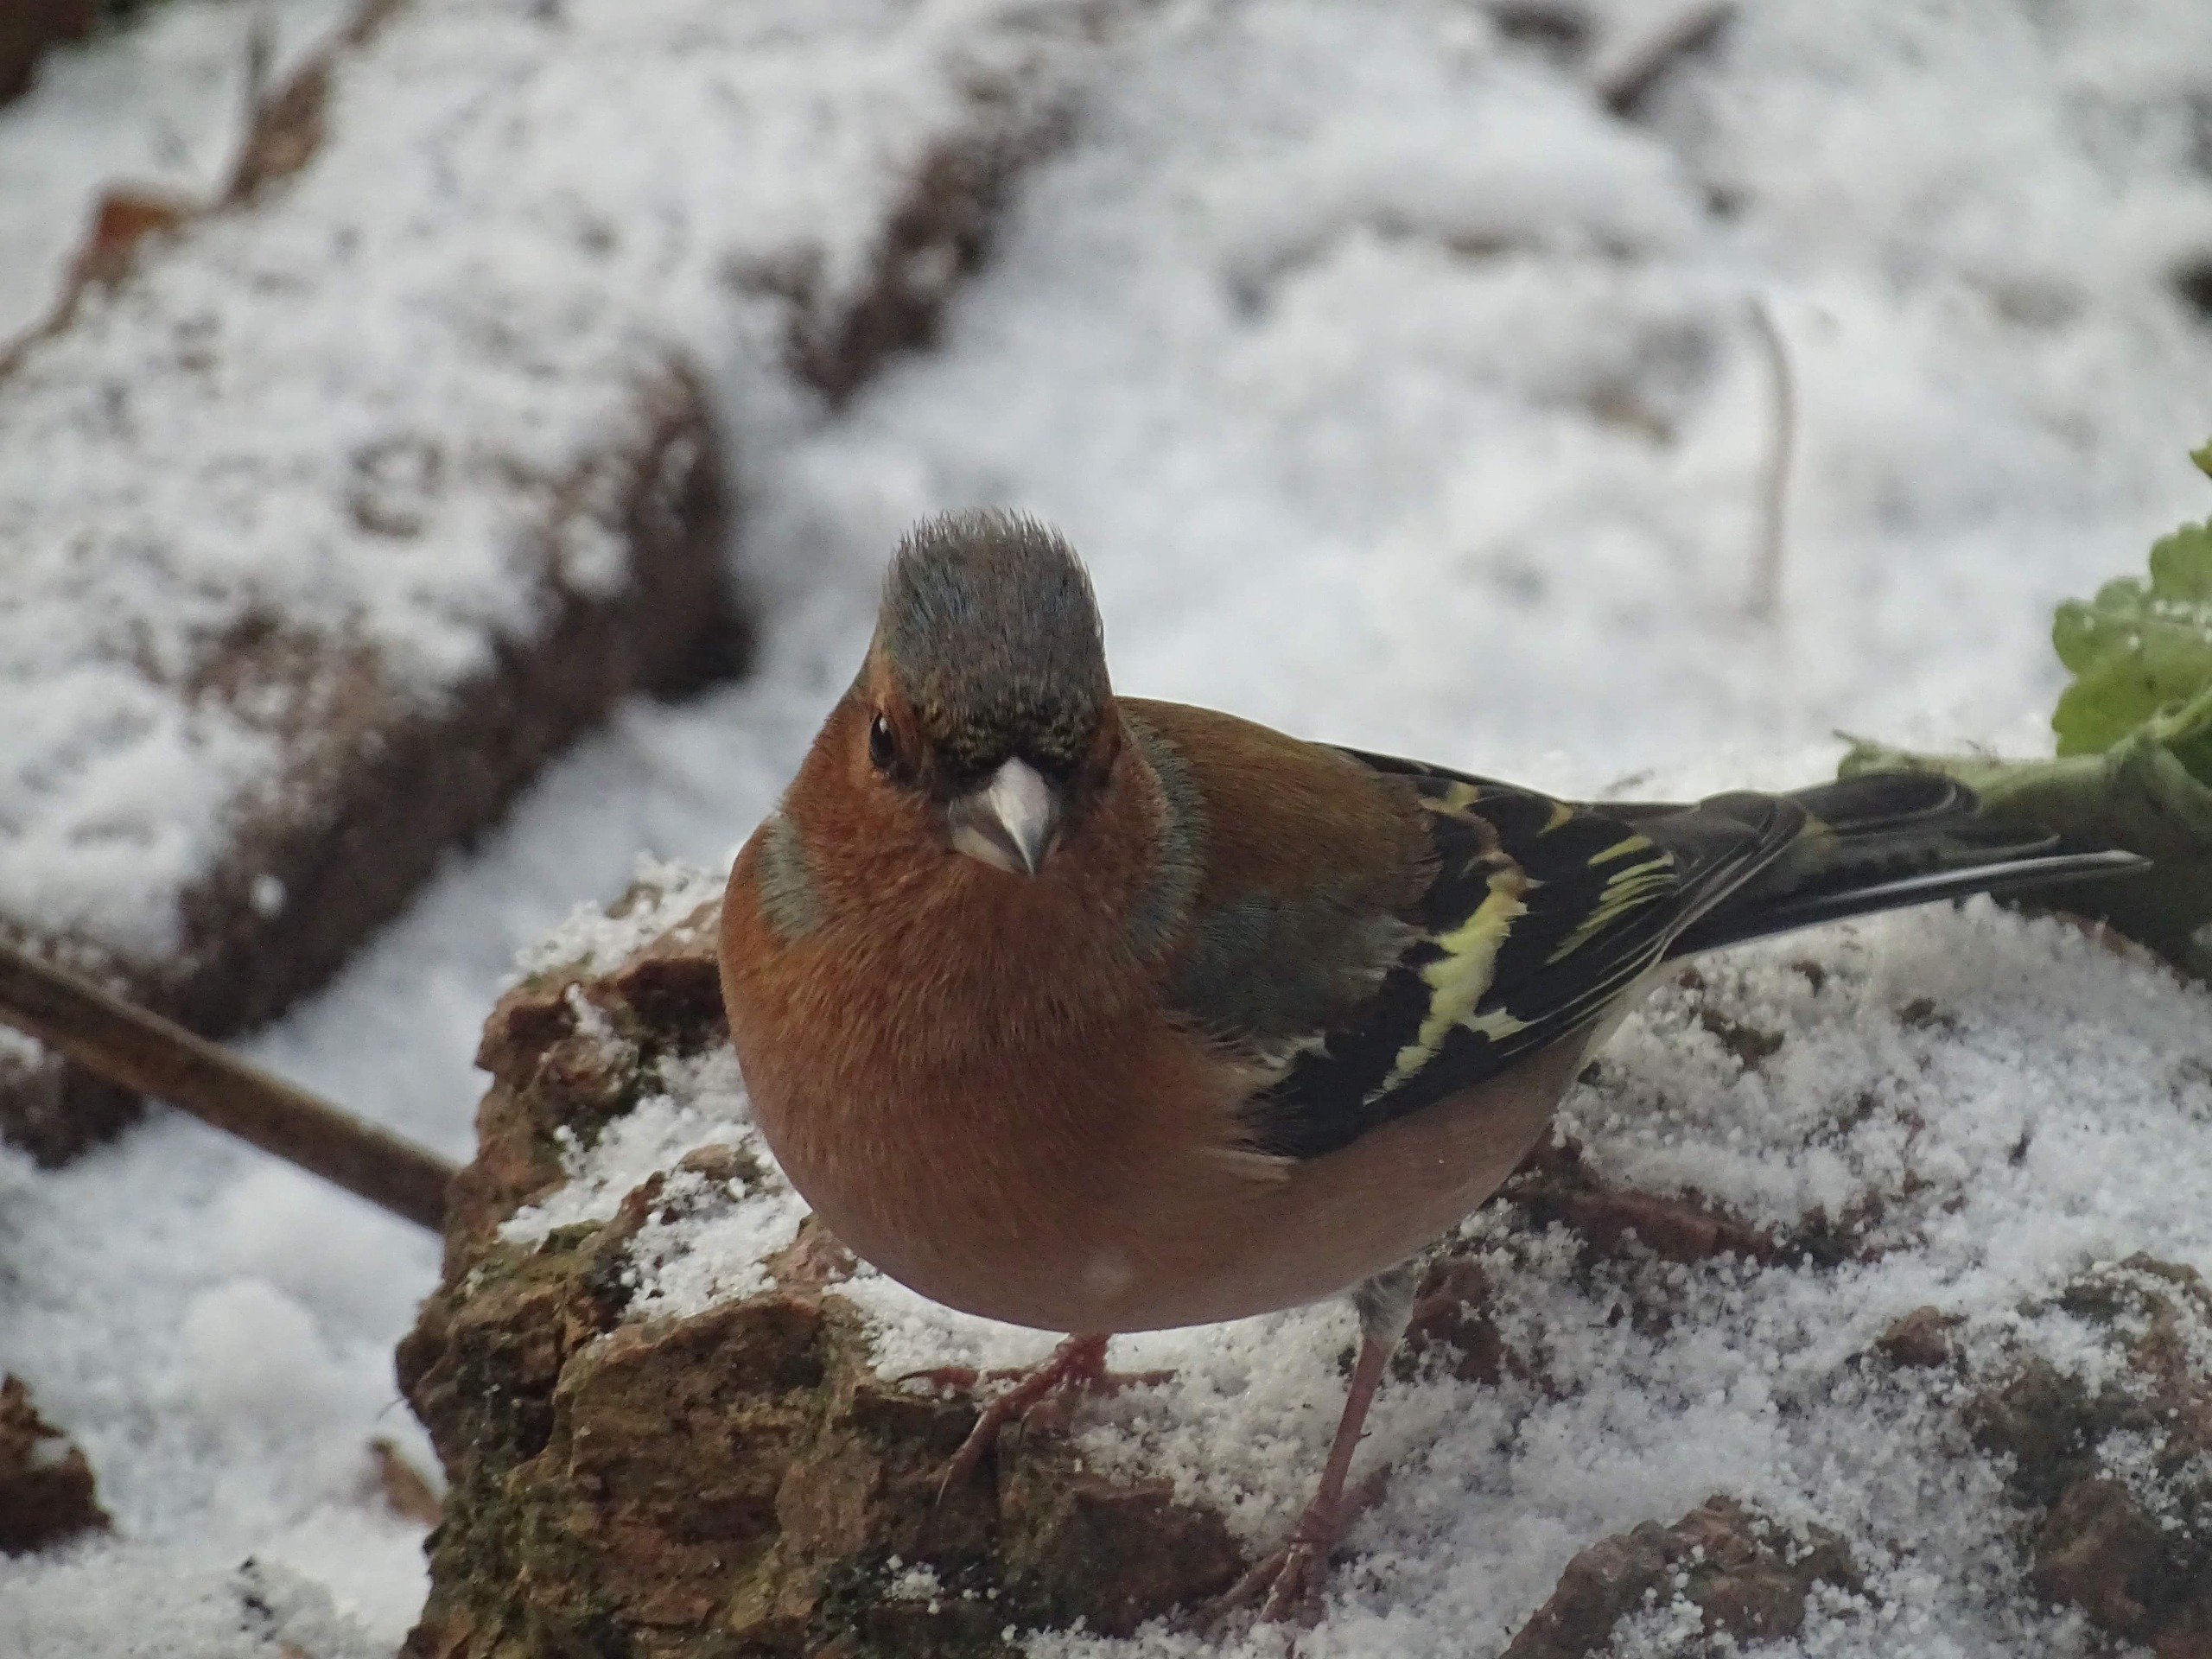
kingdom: Animalia
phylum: Chordata
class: Aves
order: Passeriformes
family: Fringillidae
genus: Fringilla
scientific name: Fringilla coelebs
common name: Bogfinke
